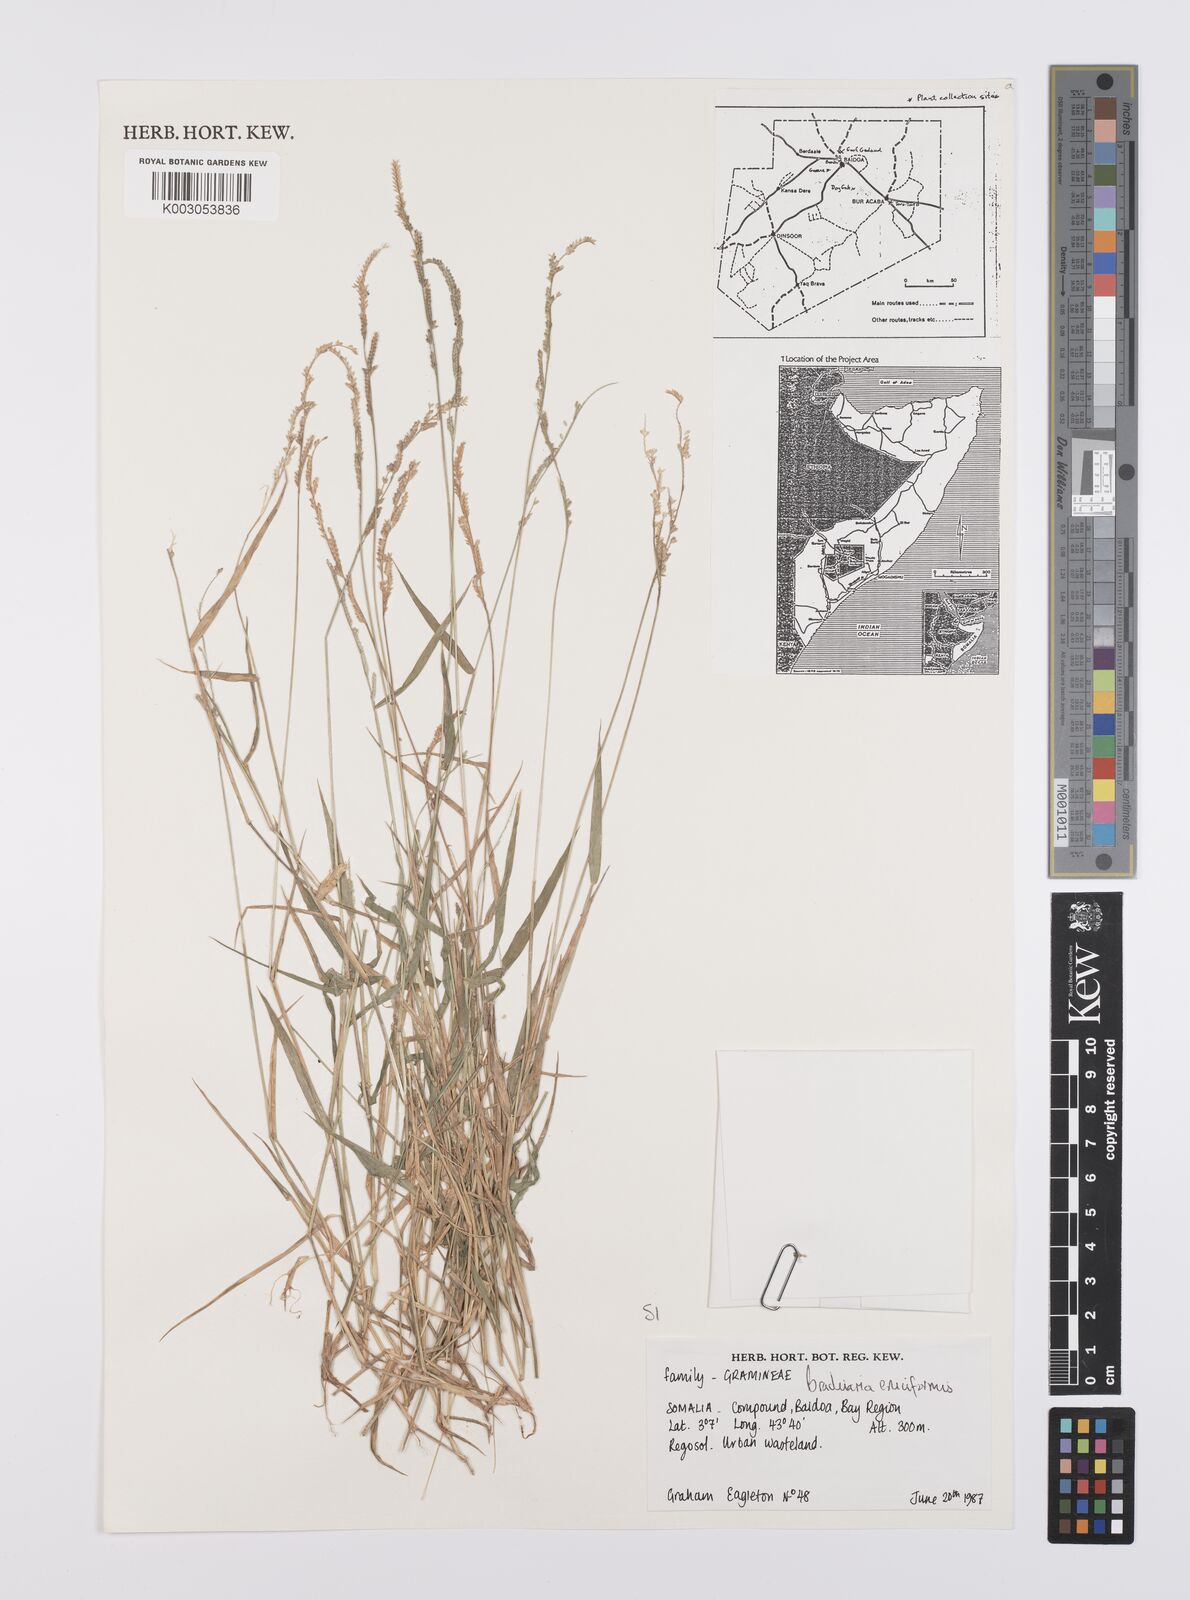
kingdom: Plantae
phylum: Tracheophyta
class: Liliopsida
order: Poales
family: Poaceae
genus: Moorochloa
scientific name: Moorochloa eruciformis
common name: Sweet signalgrass
